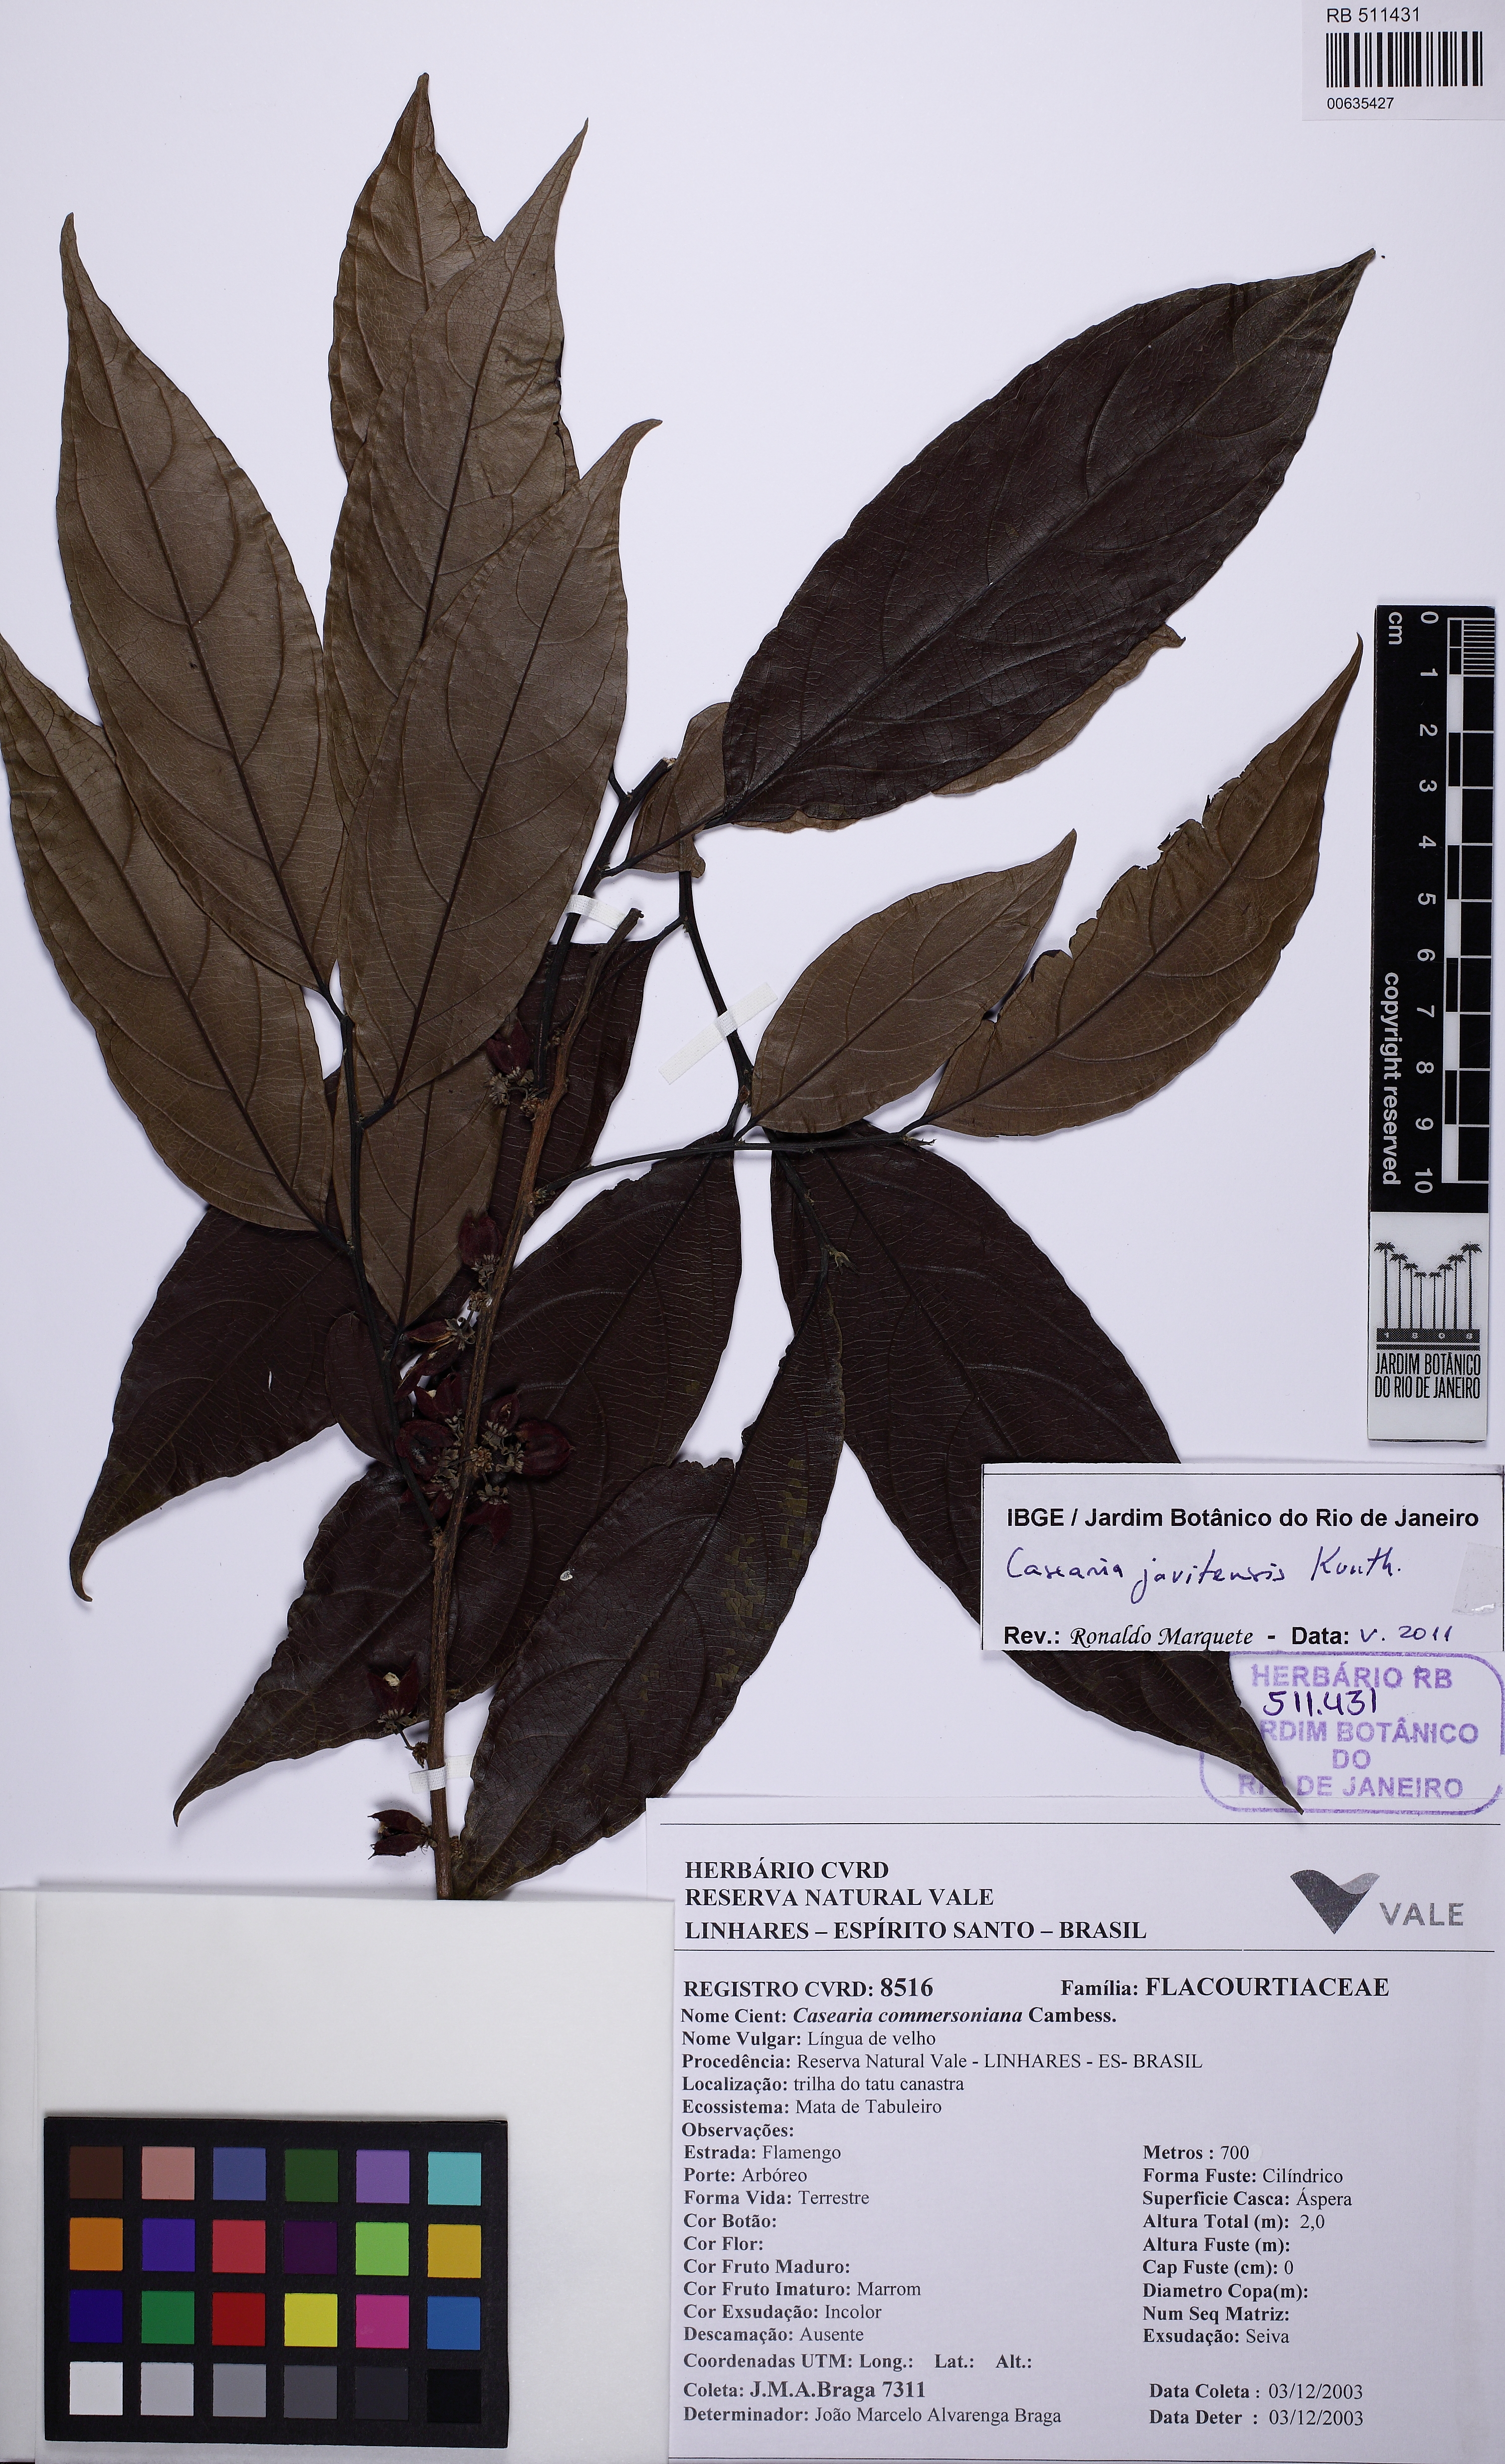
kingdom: Plantae
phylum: Tracheophyta
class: Magnoliopsida
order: Malpighiales
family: Salicaceae
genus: Piparea
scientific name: Piparea multiflora
